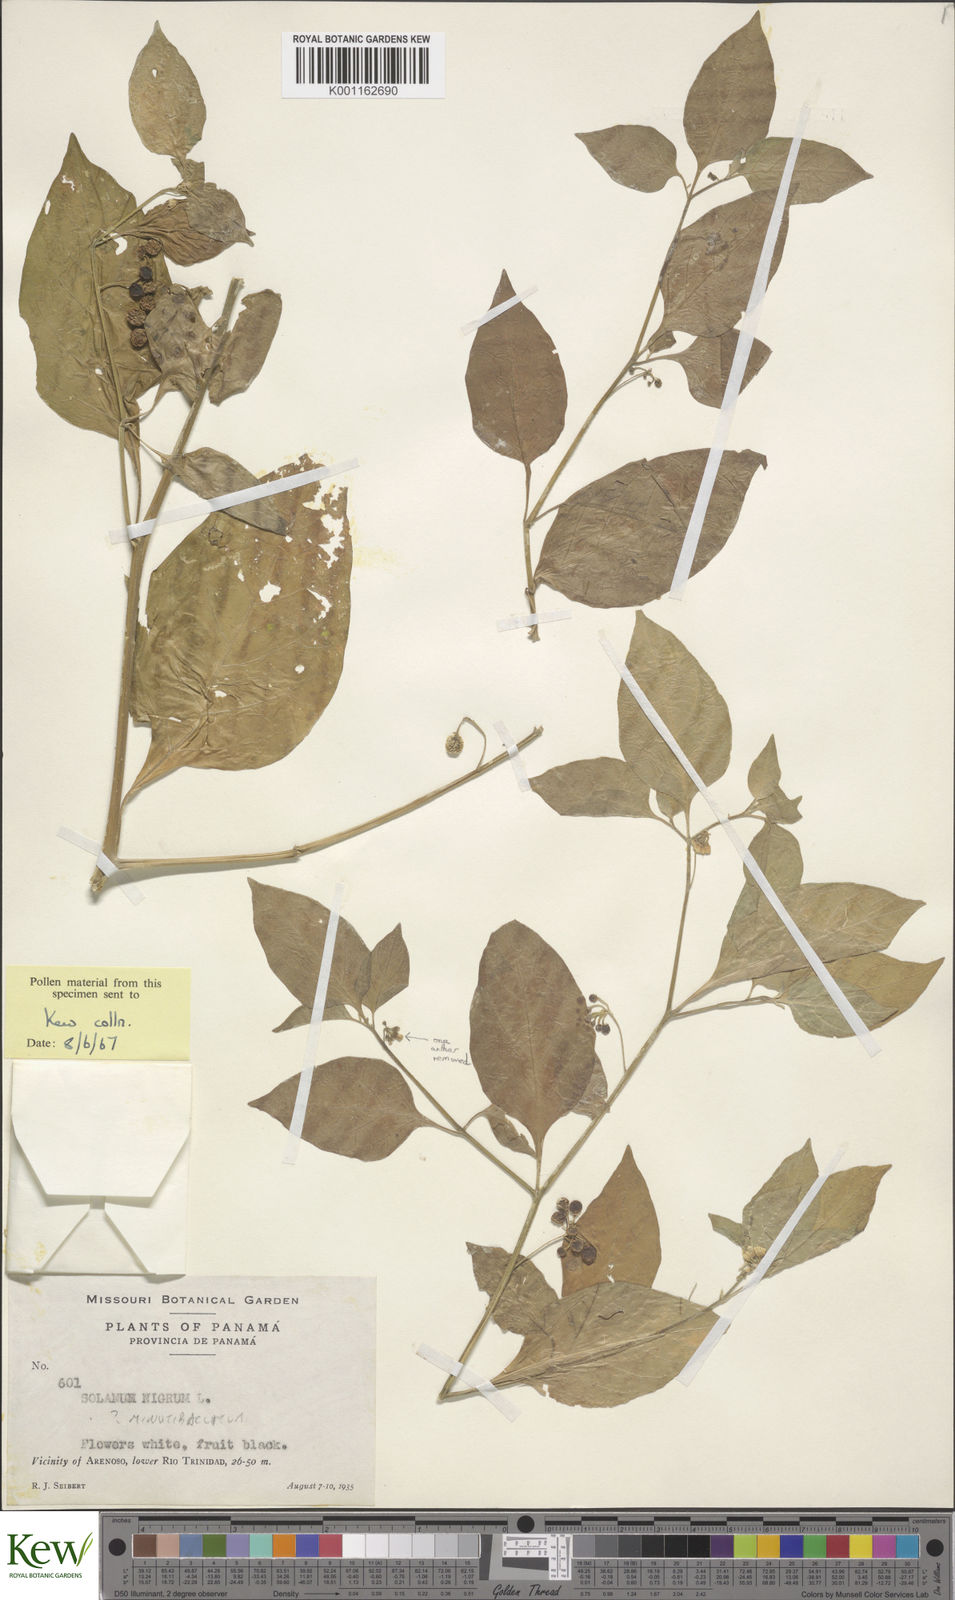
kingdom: Plantae
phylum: Tracheophyta
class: Magnoliopsida
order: Solanales
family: Solanaceae
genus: Solanum
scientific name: Solanum nigrescens
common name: Divine nightshade
